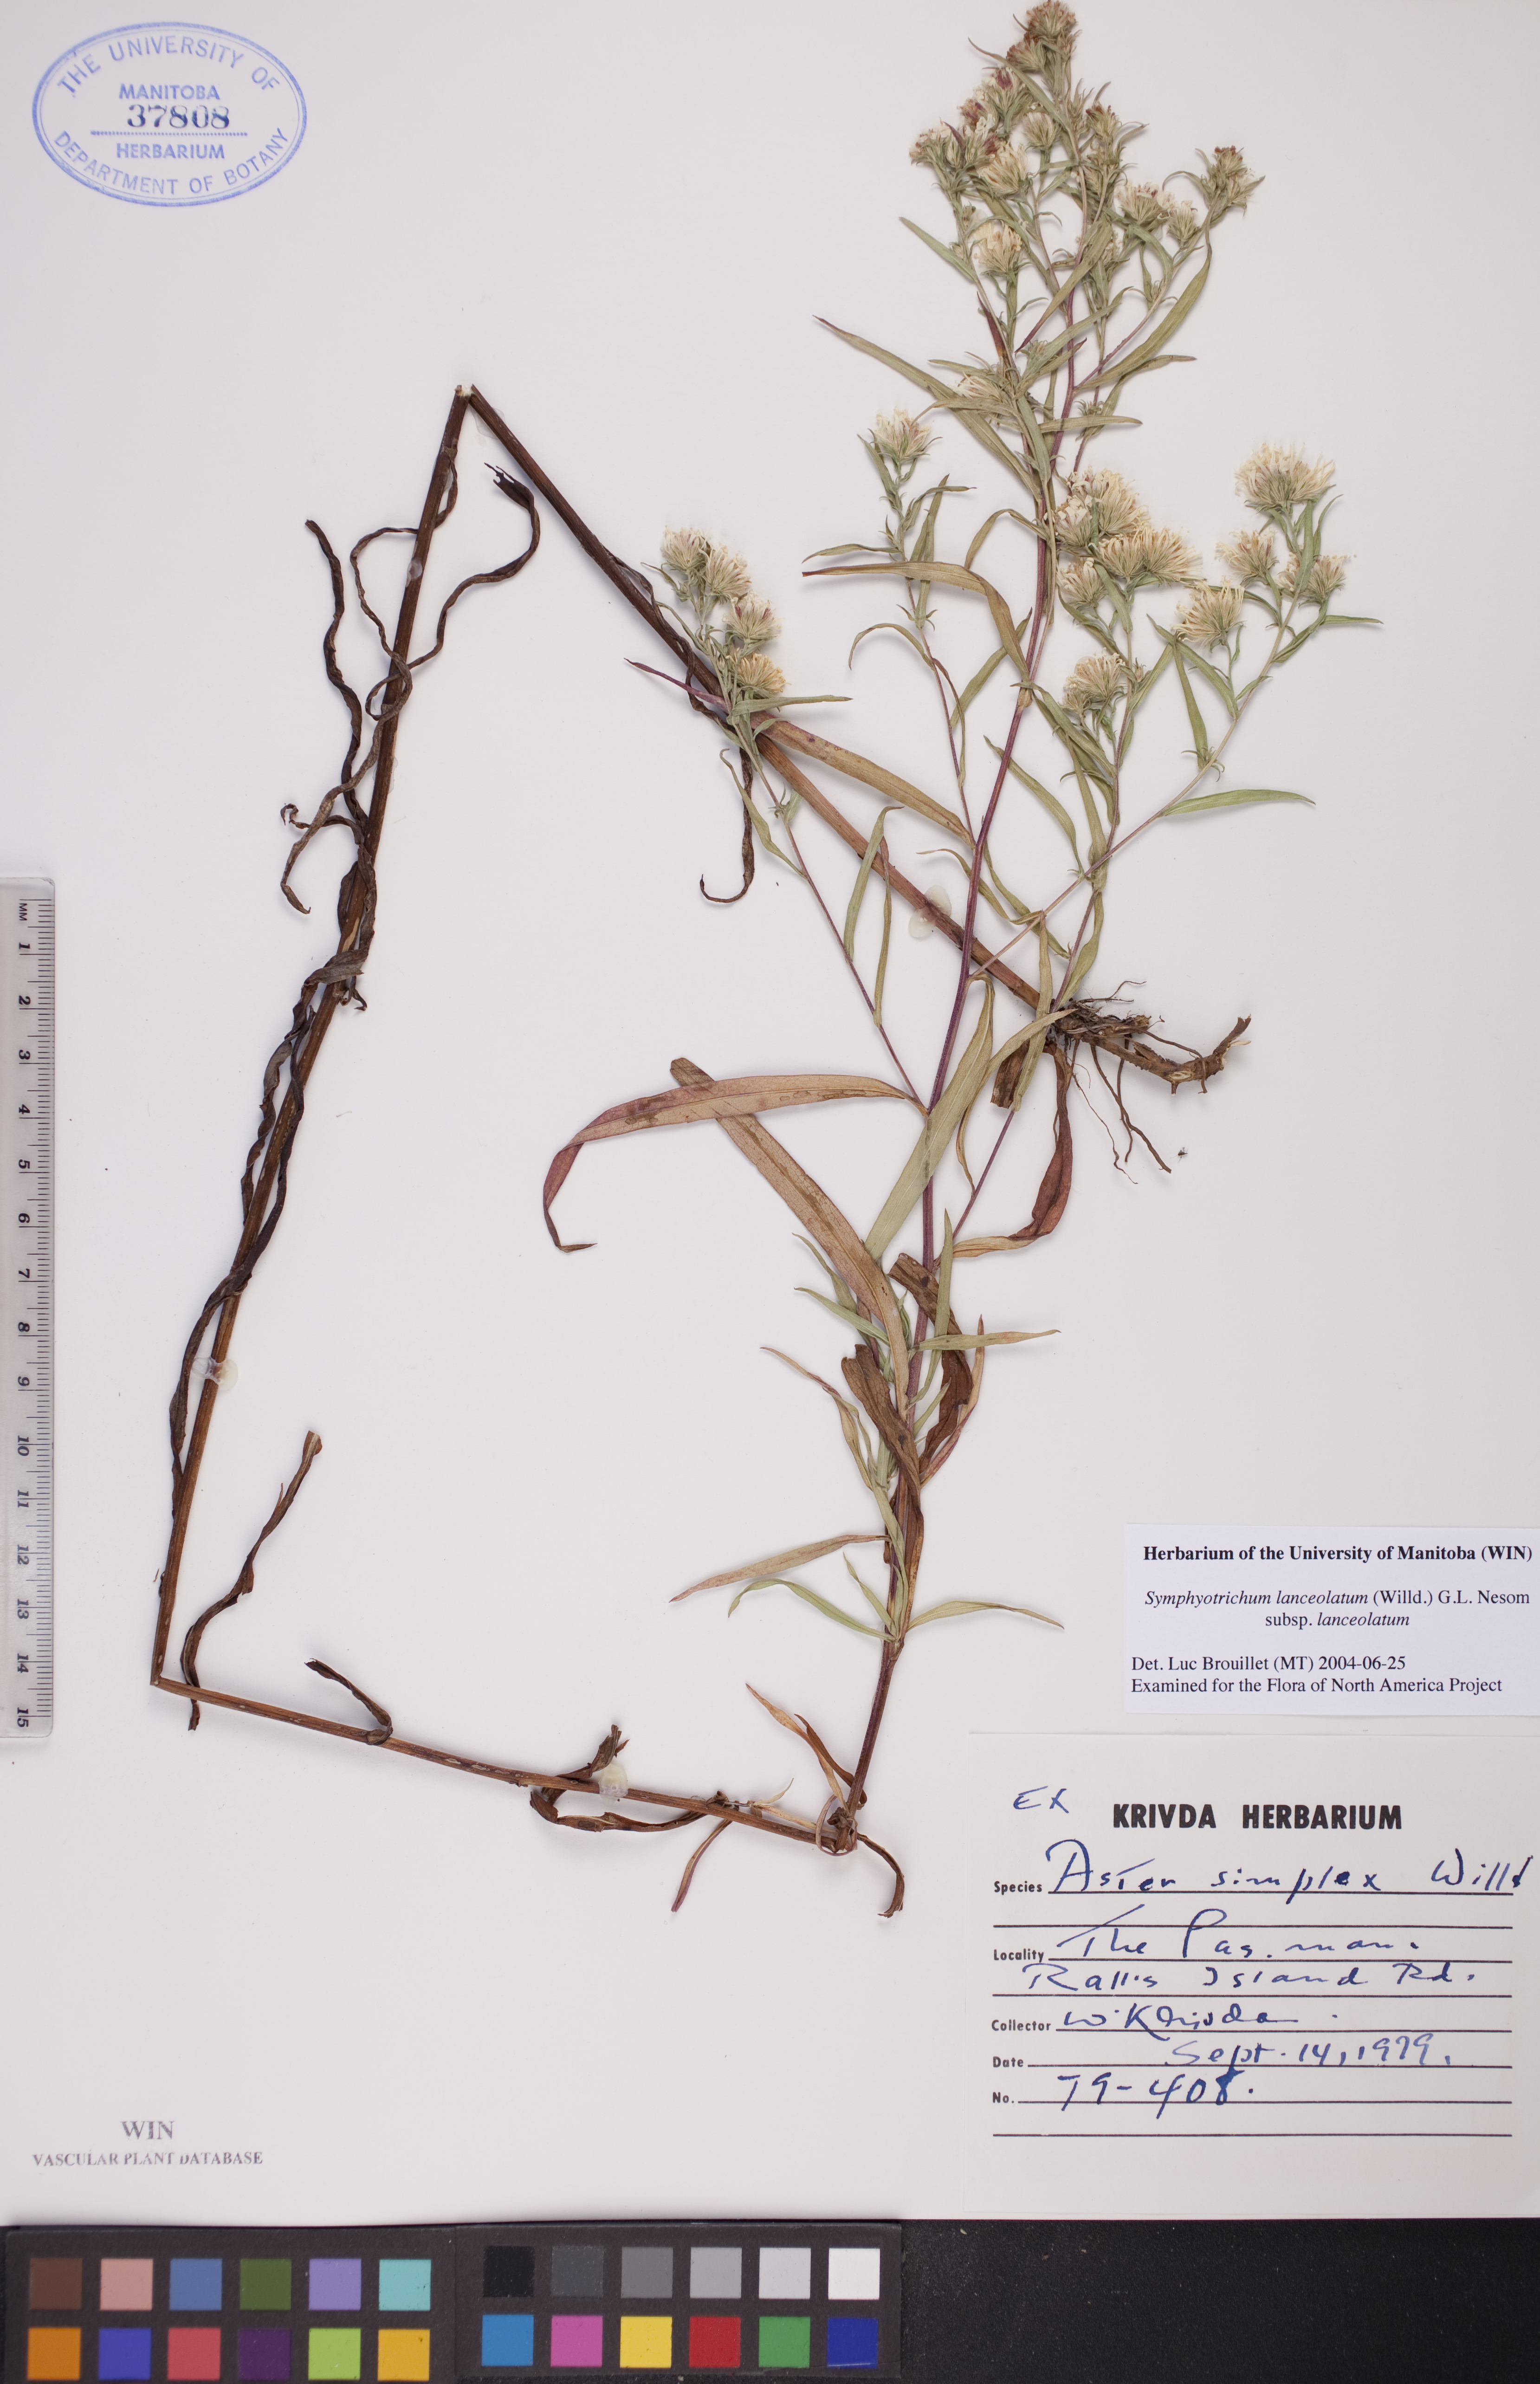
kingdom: Plantae
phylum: Tracheophyta
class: Magnoliopsida
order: Asterales
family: Asteraceae
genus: Symphyotrichum
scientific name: Symphyotrichum lanceolatum
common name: Panicled aster
